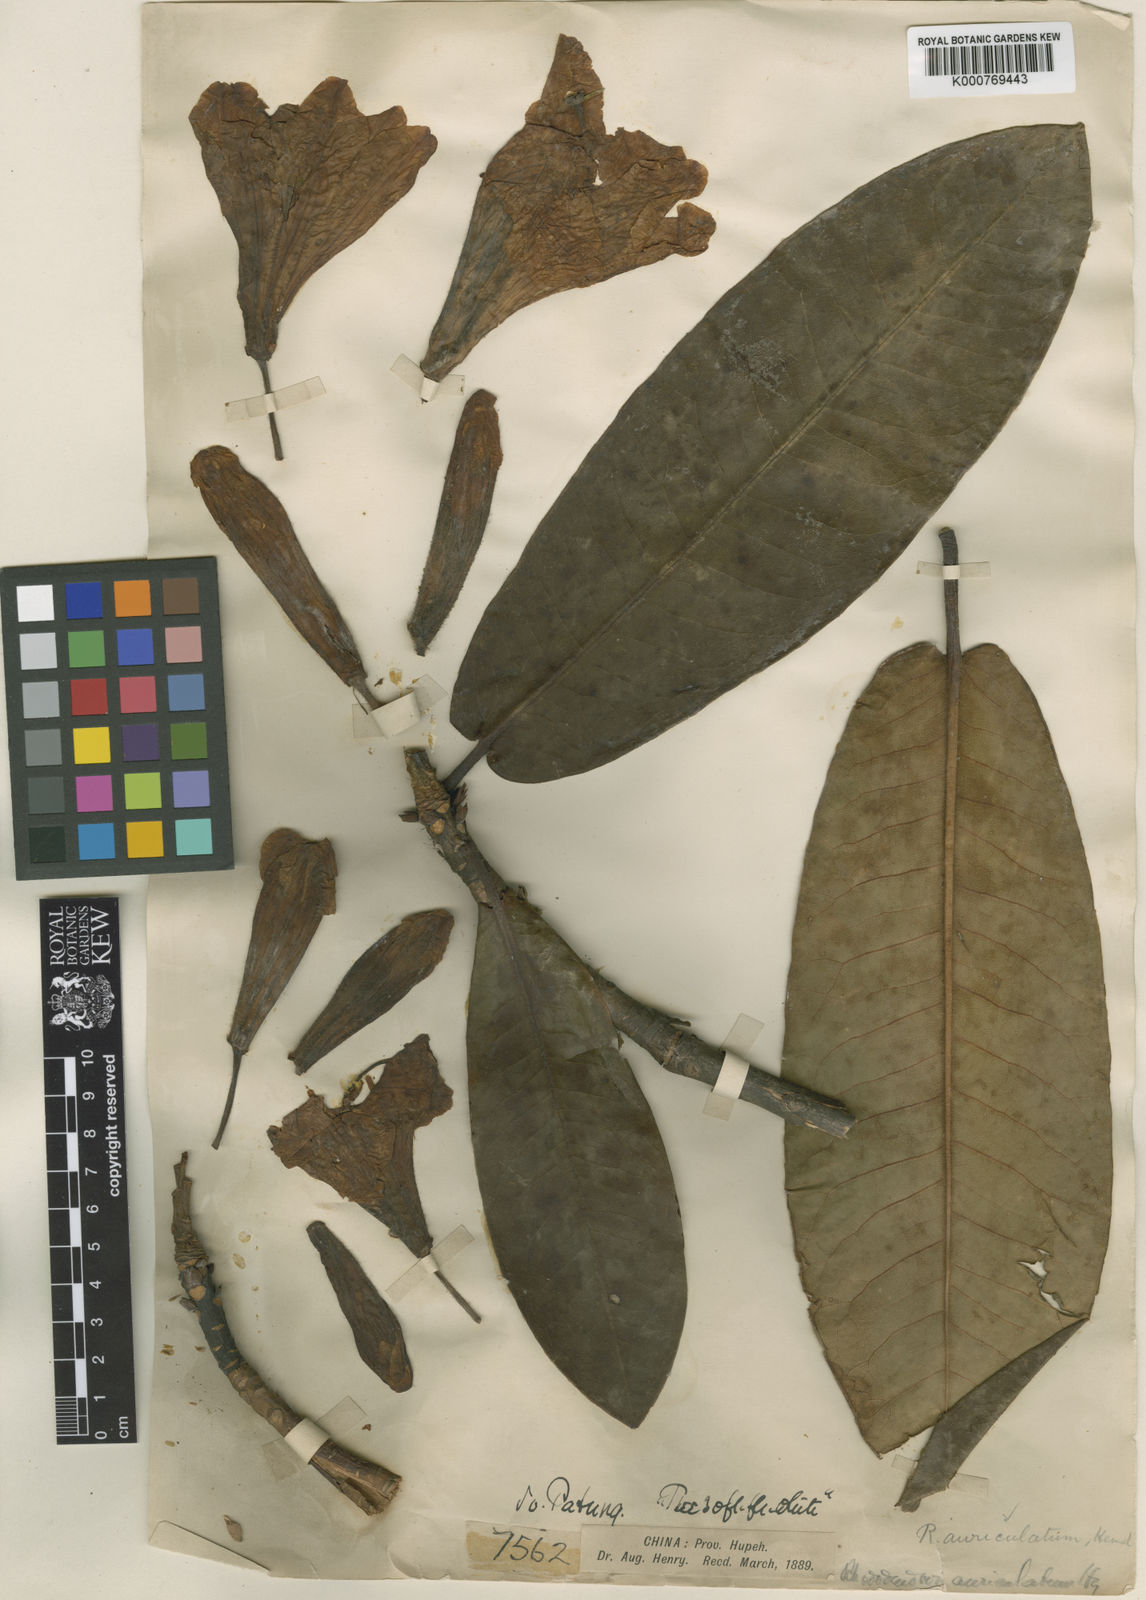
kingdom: Plantae
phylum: Tracheophyta
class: Magnoliopsida
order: Ericales
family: Ericaceae
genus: Rhododendron
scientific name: Rhododendron auriculatum
